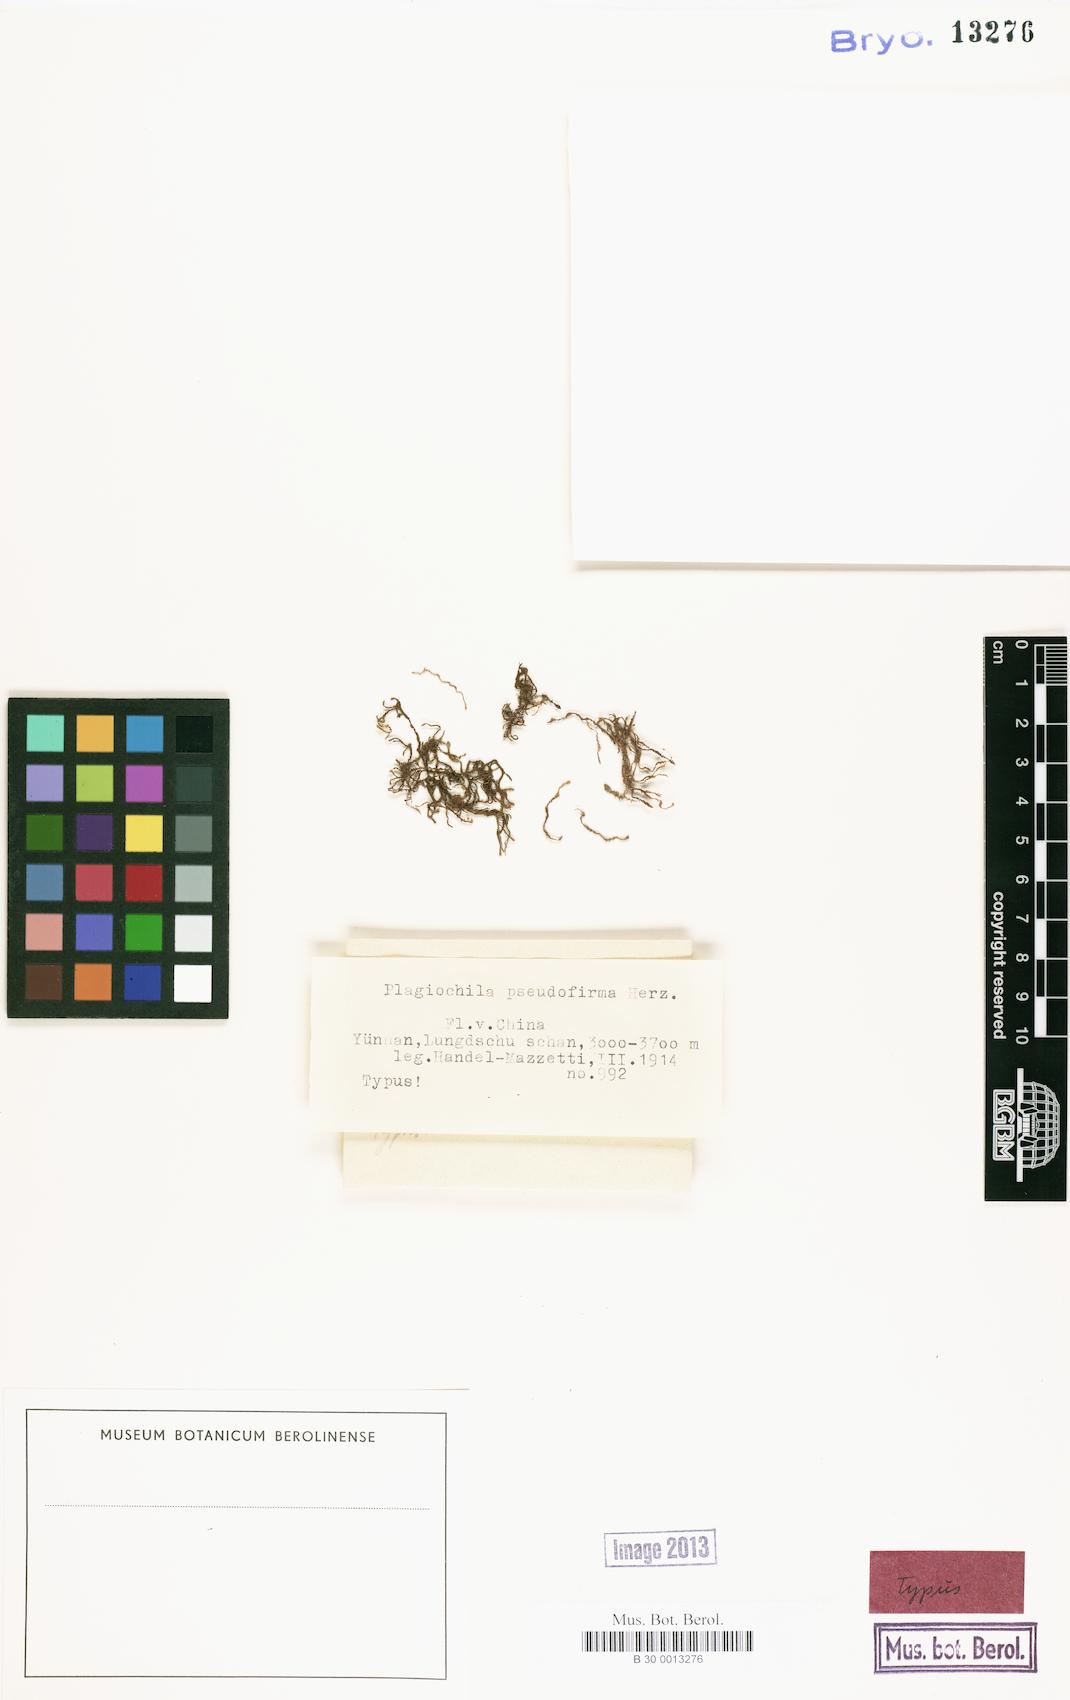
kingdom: Plantae
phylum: Marchantiophyta
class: Jungermanniopsida
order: Jungermanniales
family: Plagiochilaceae
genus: Plagiochila
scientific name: Plagiochila pseudofirma
